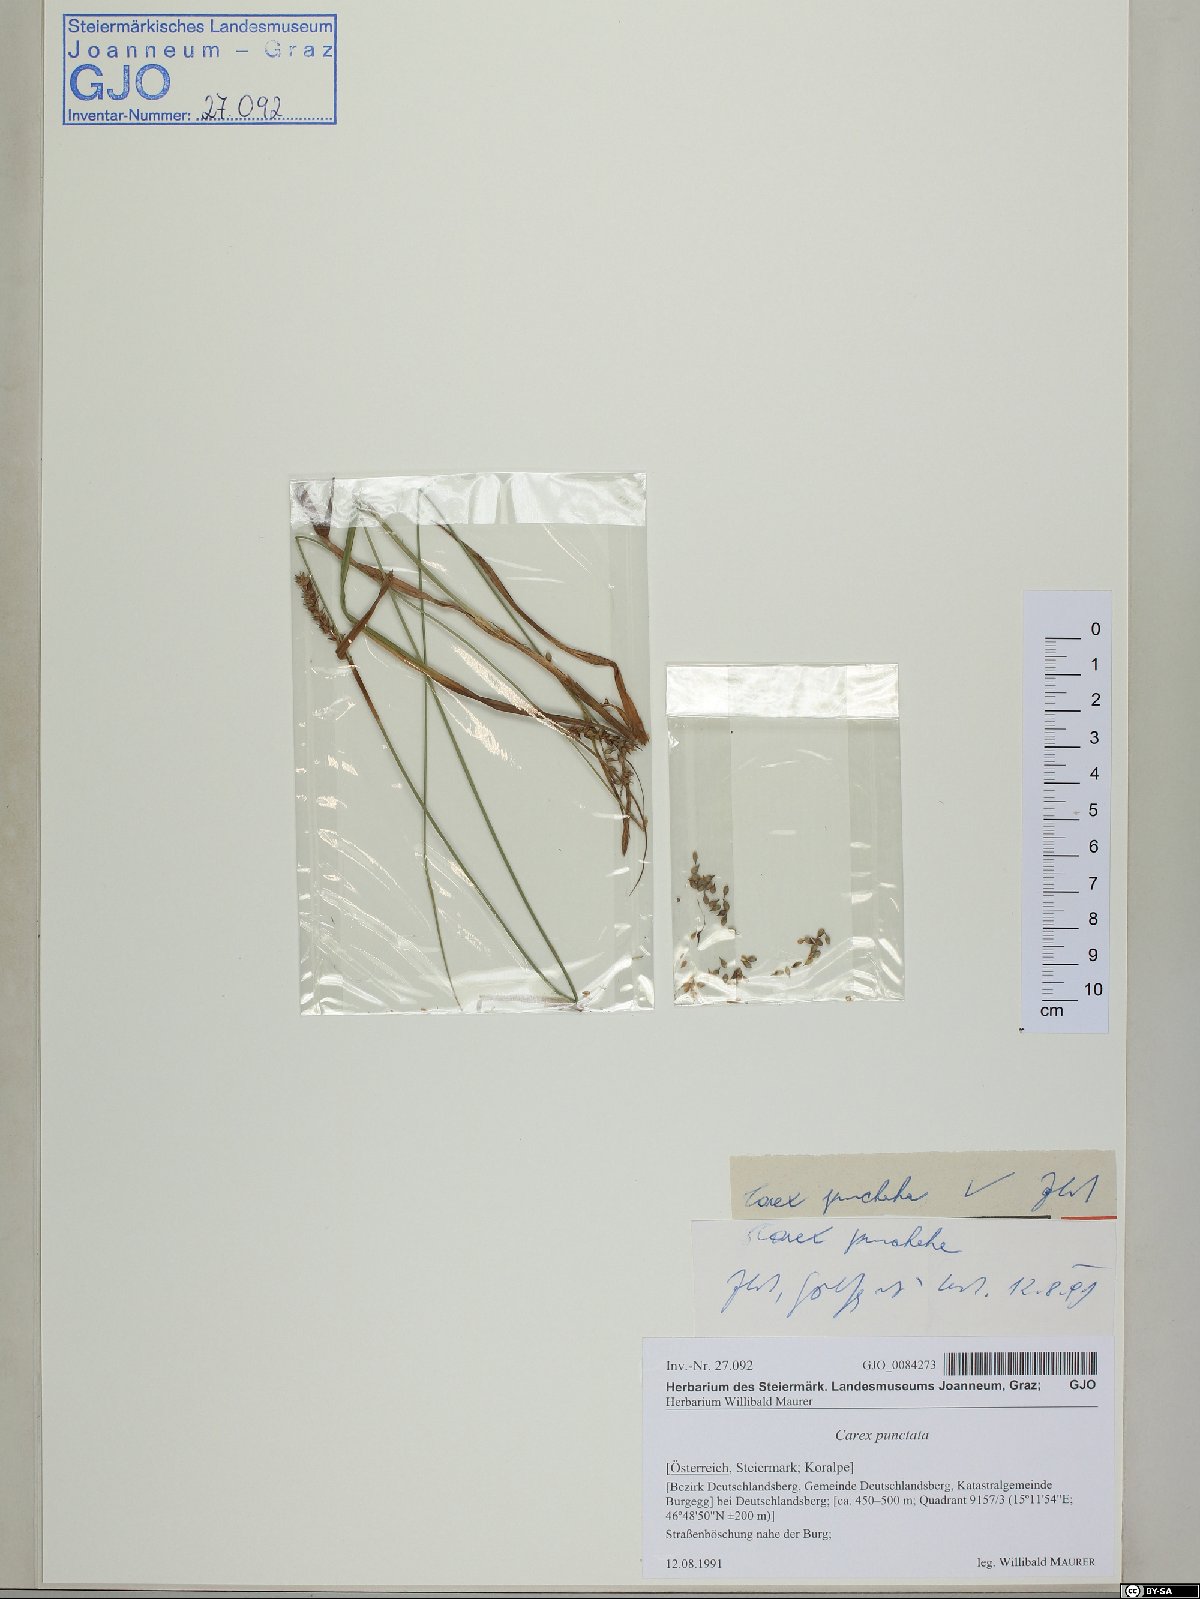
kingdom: Plantae
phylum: Tracheophyta
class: Liliopsida
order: Poales
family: Cyperaceae
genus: Carex
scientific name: Carex punctata
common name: Dotted sedge
